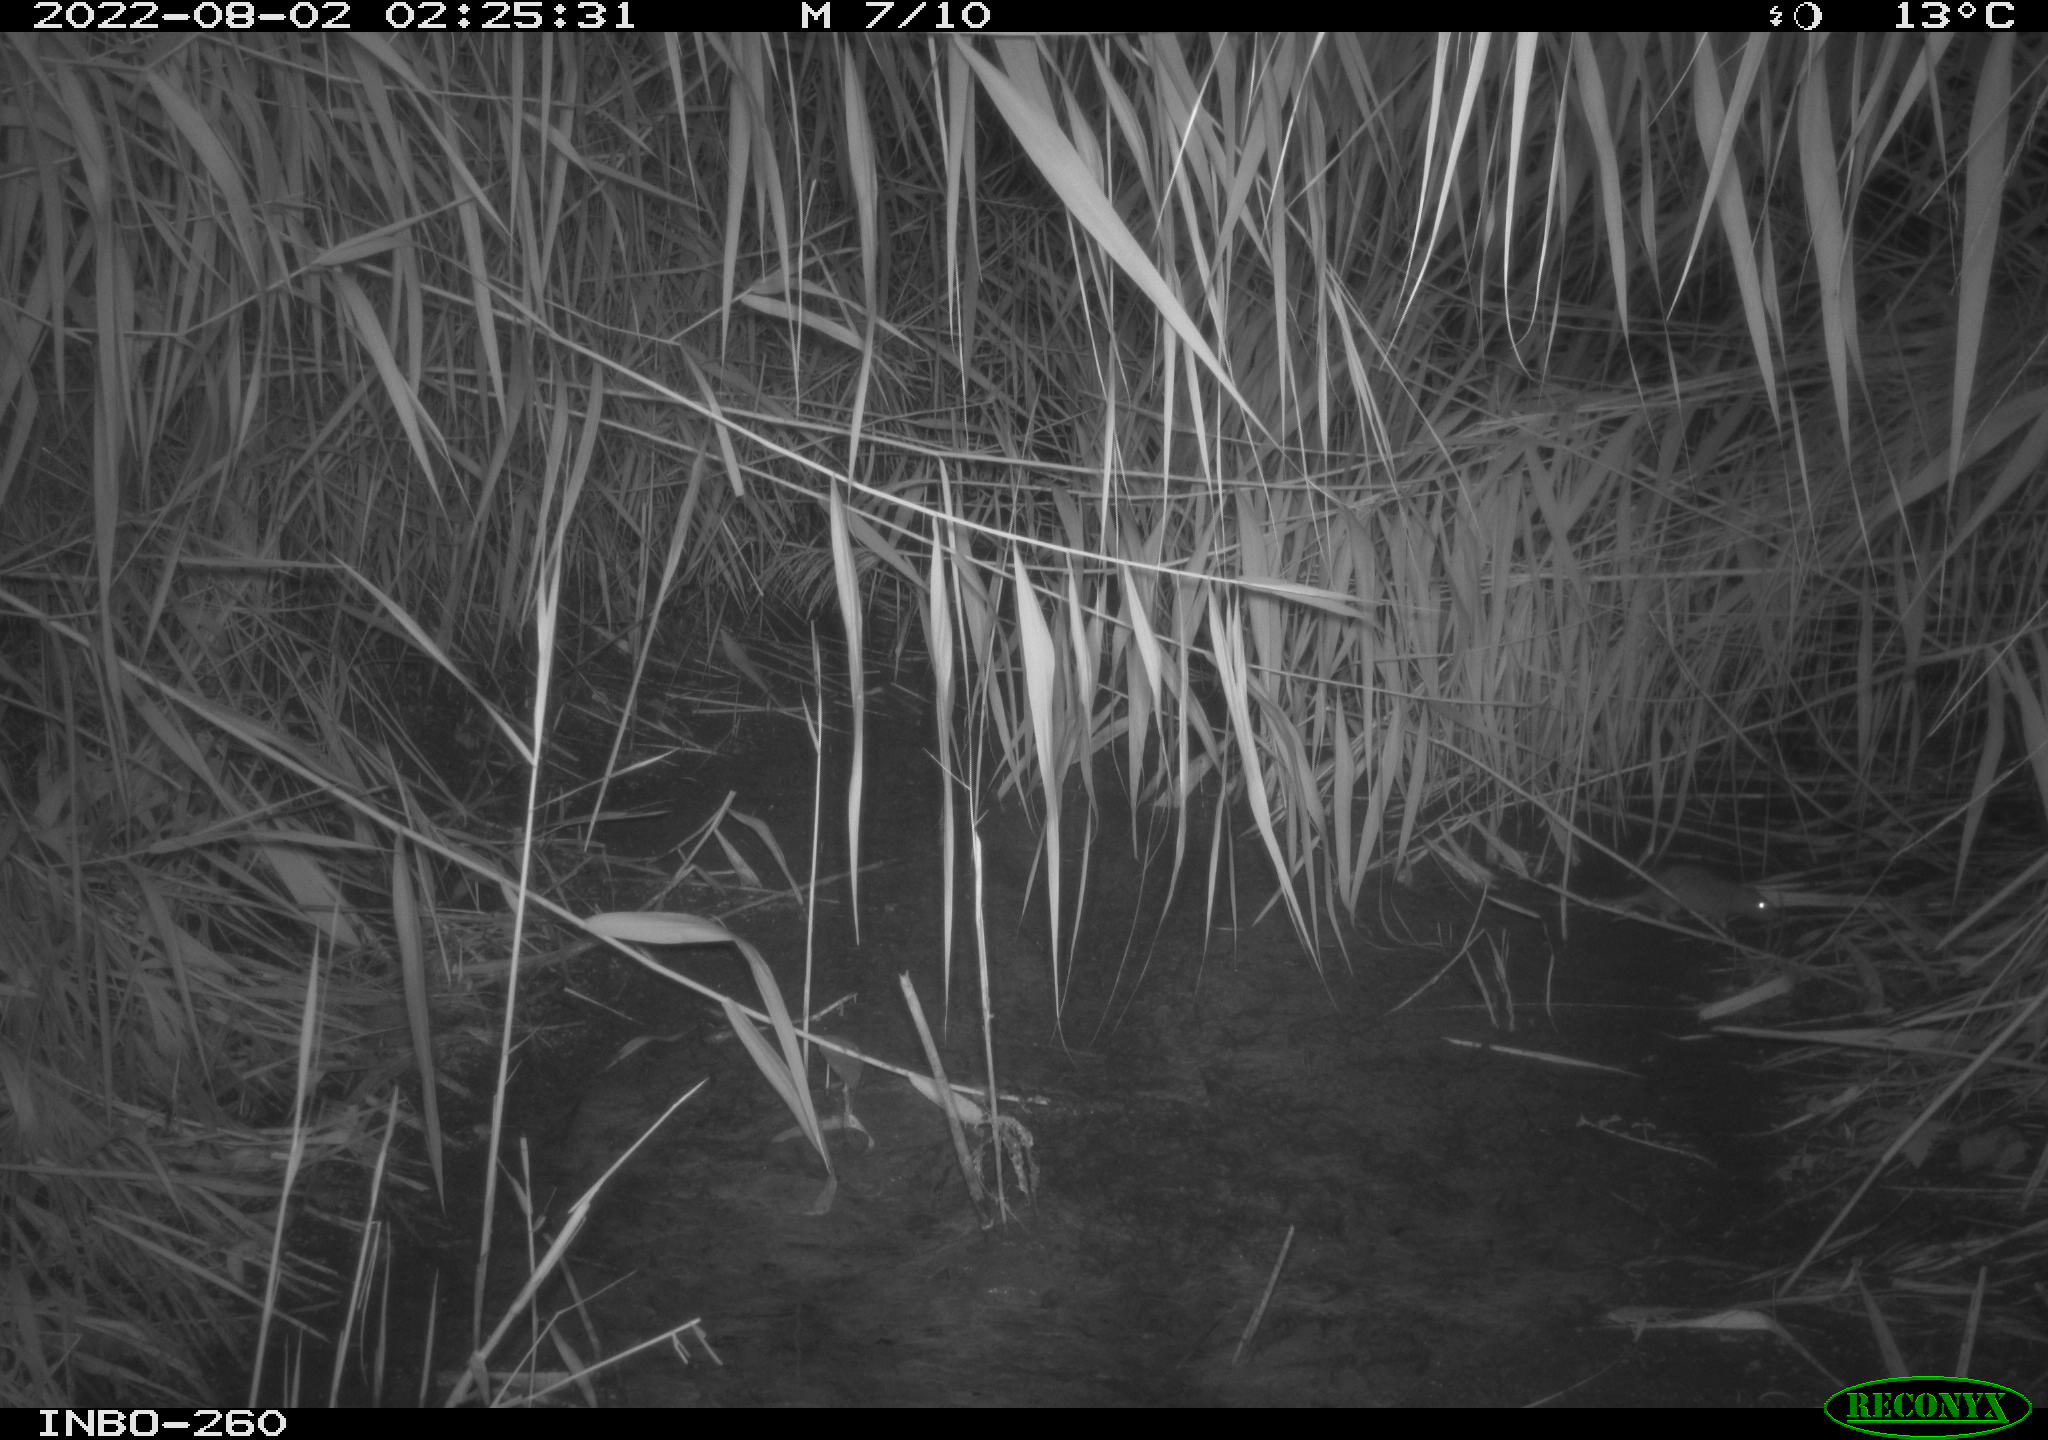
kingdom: Animalia
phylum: Chordata
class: Mammalia
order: Rodentia
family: Muridae
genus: Rattus
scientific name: Rattus norvegicus
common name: Brown rat
